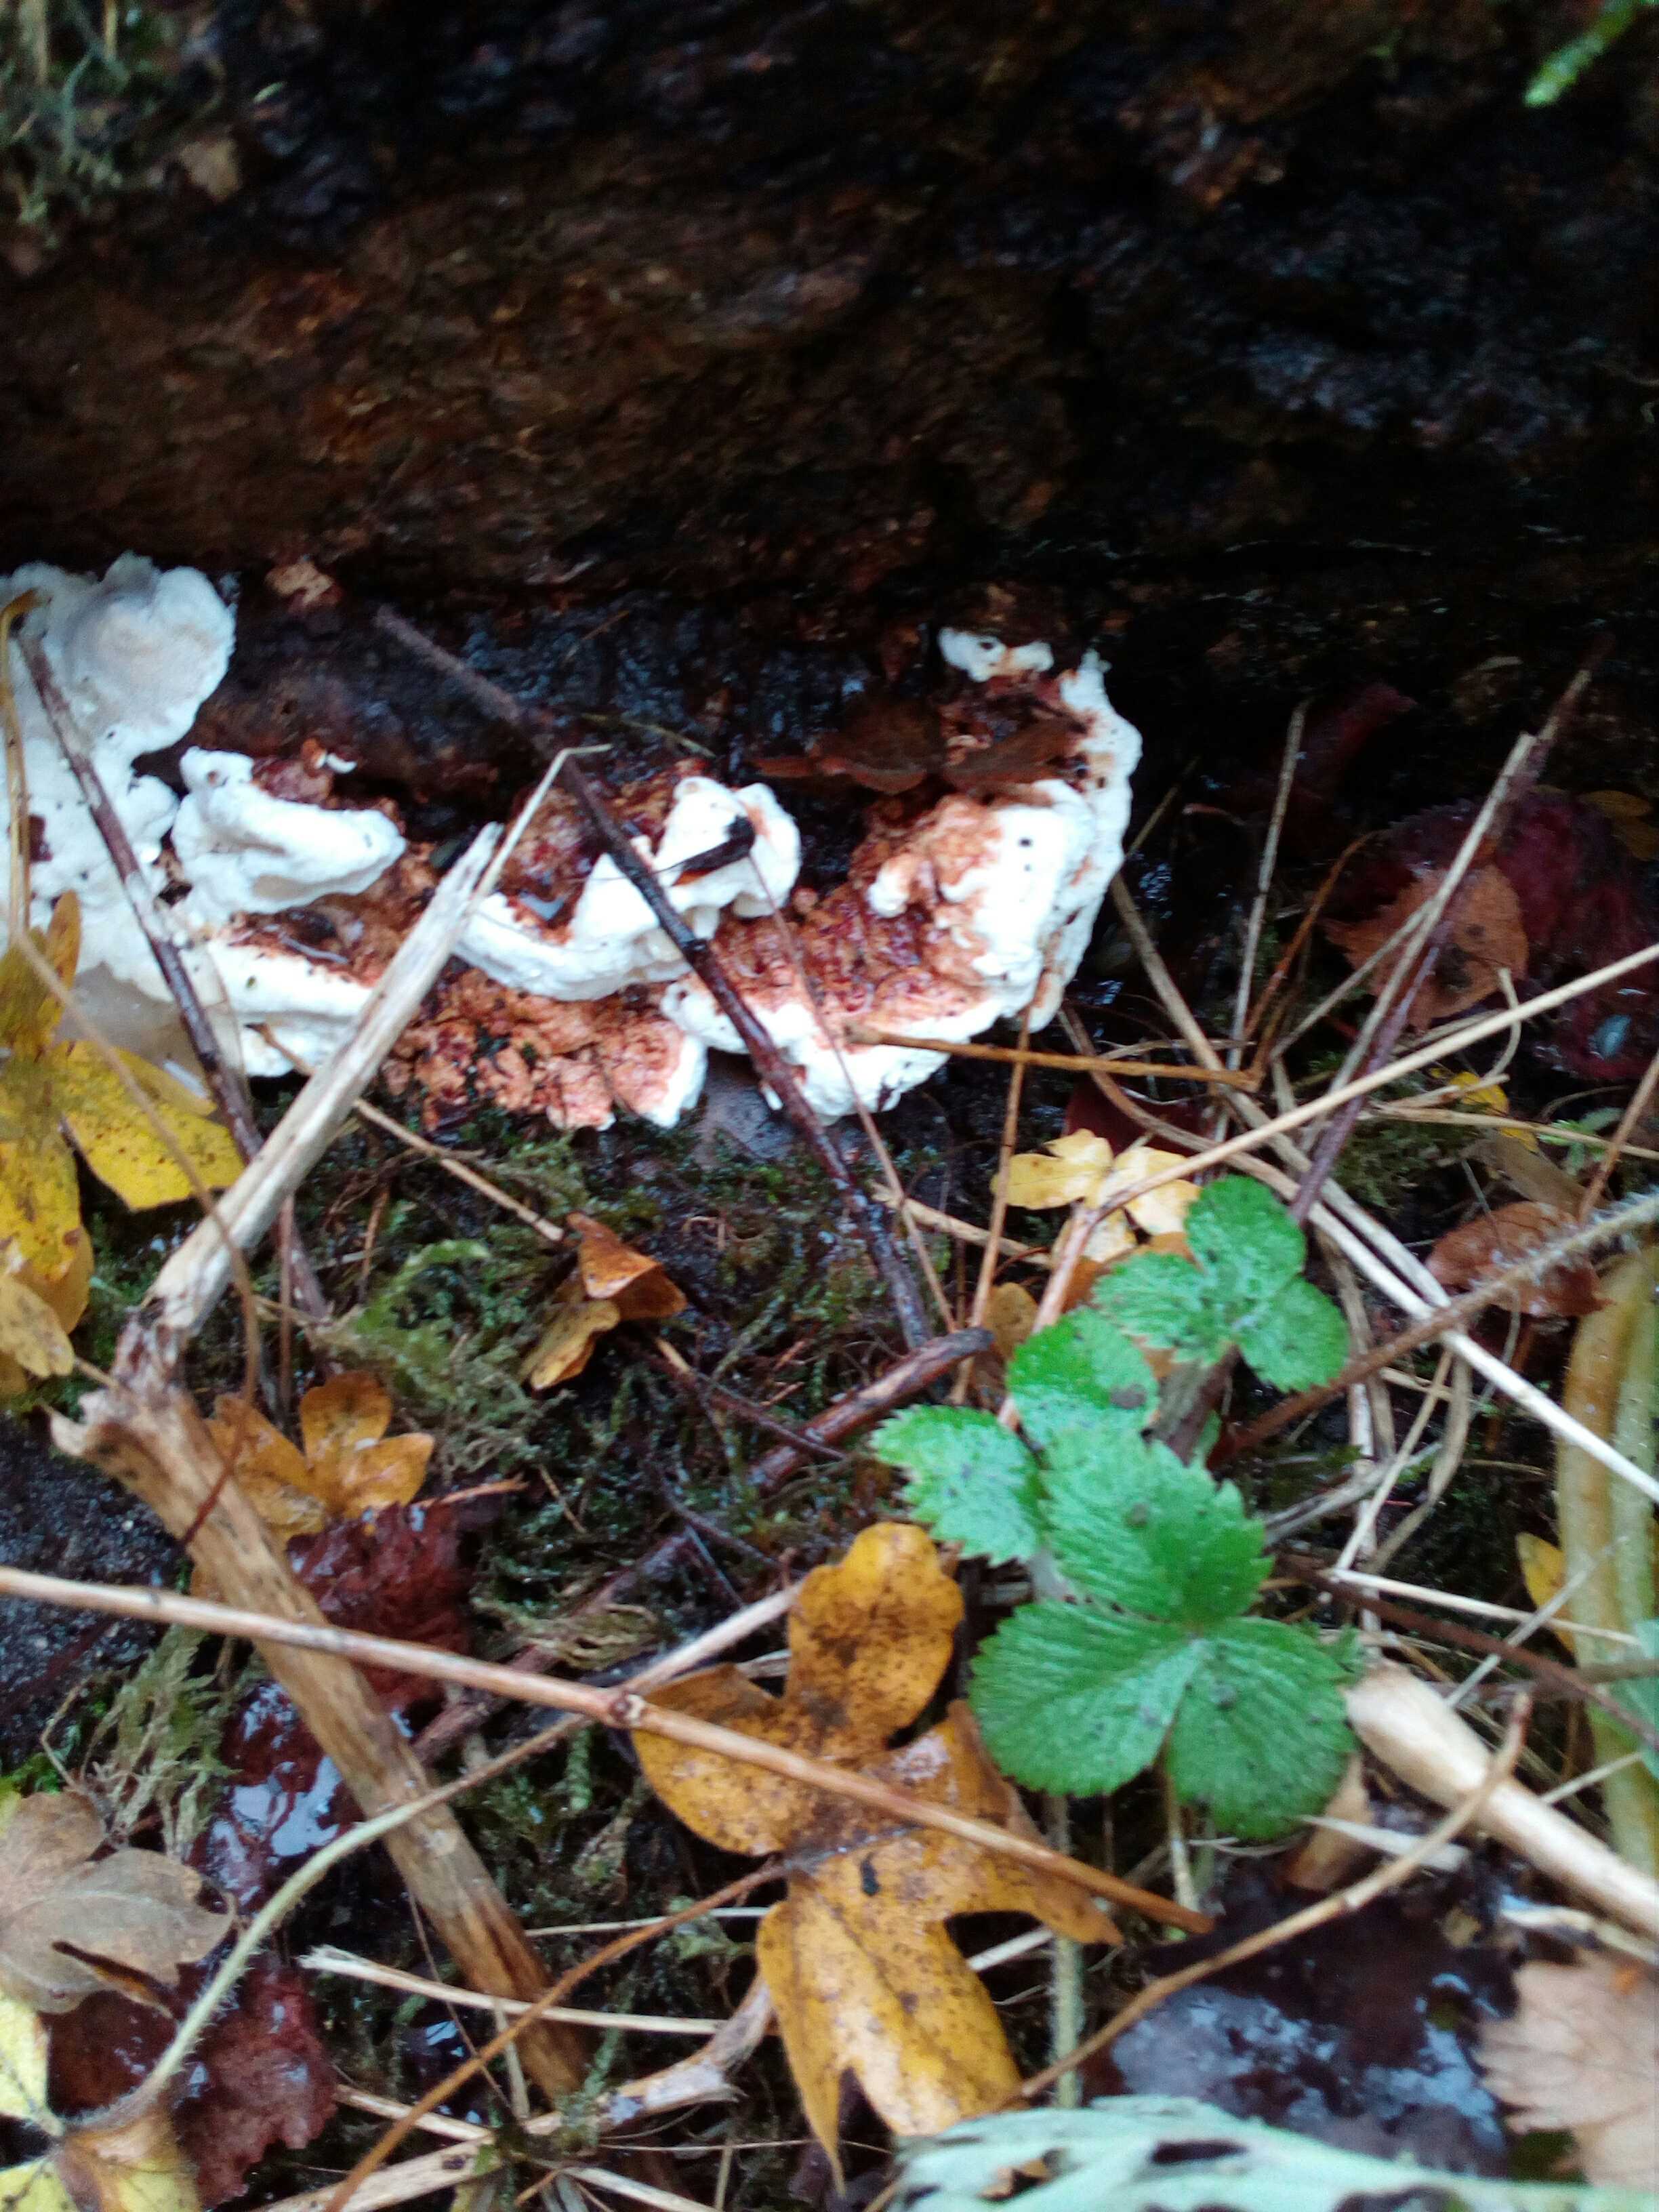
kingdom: Fungi
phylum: Basidiomycota
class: Agaricomycetes
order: Russulales
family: Bondarzewiaceae
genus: Heterobasidion
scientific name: Heterobasidion annosum
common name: almindelig rodfordærver
